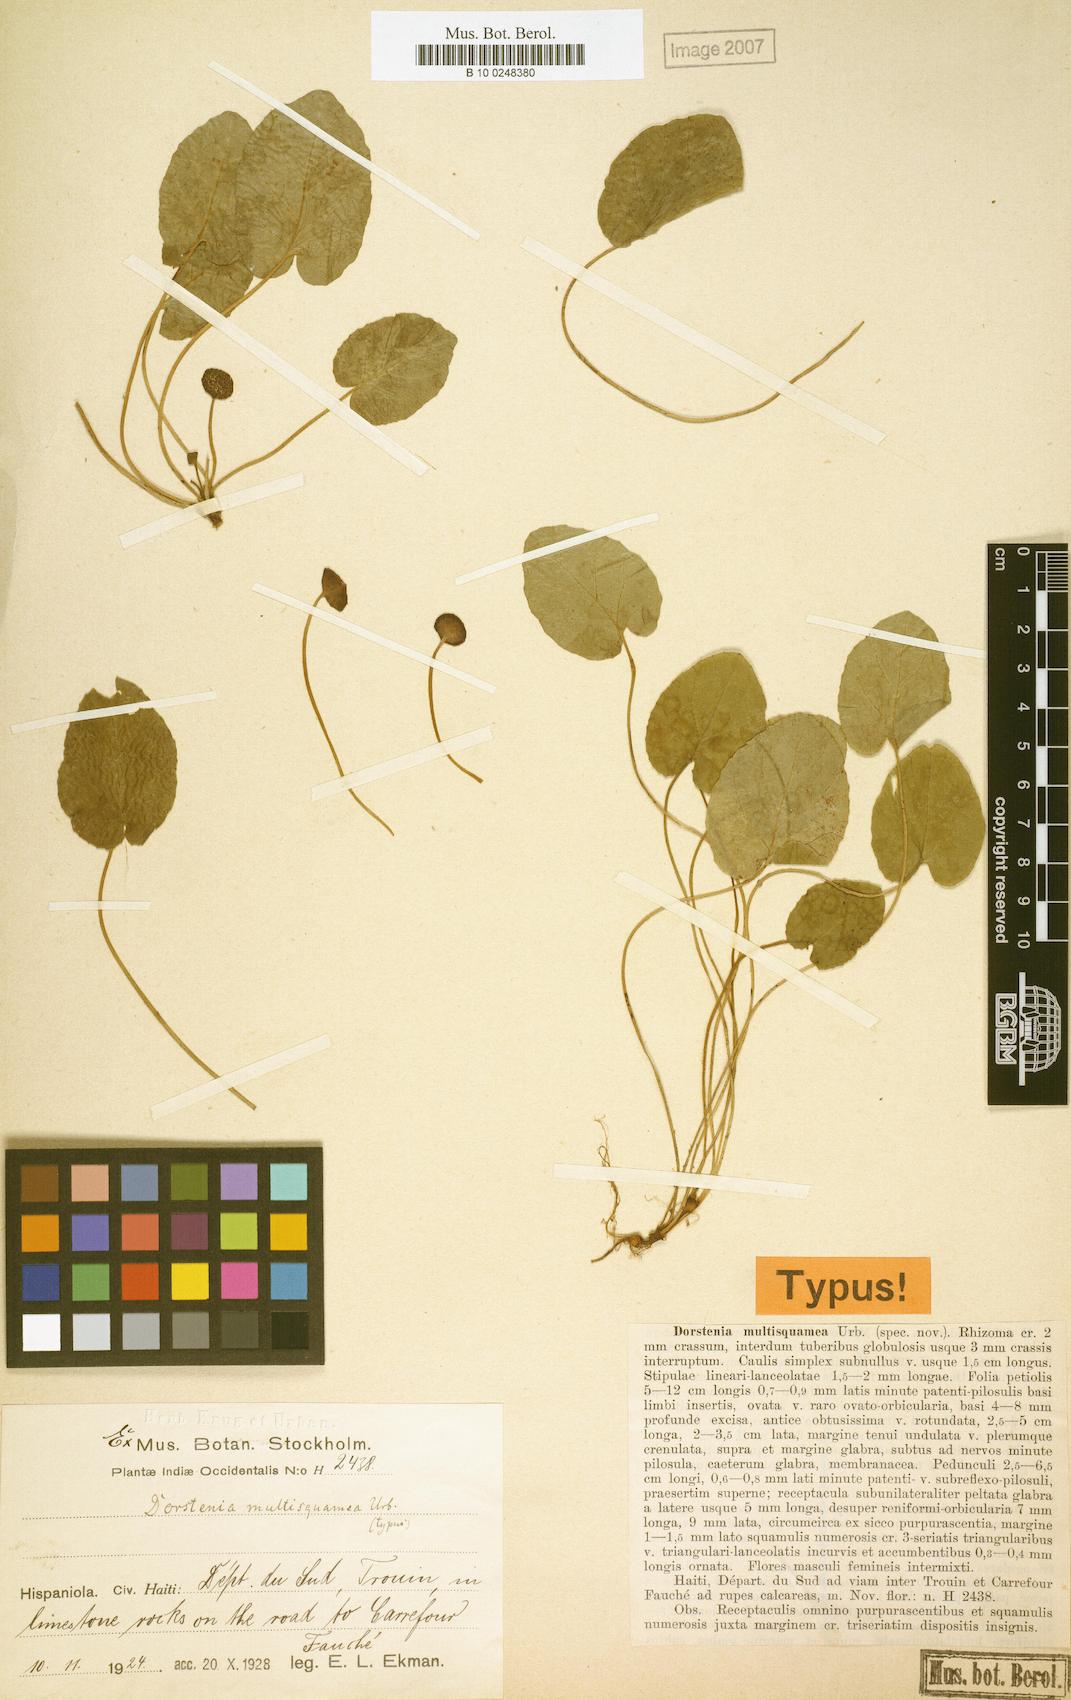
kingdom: Plantae
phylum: Tracheophyta
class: Magnoliopsida
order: Rosales
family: Moraceae
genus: Dorstenia
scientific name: Dorstenia erythrandra
